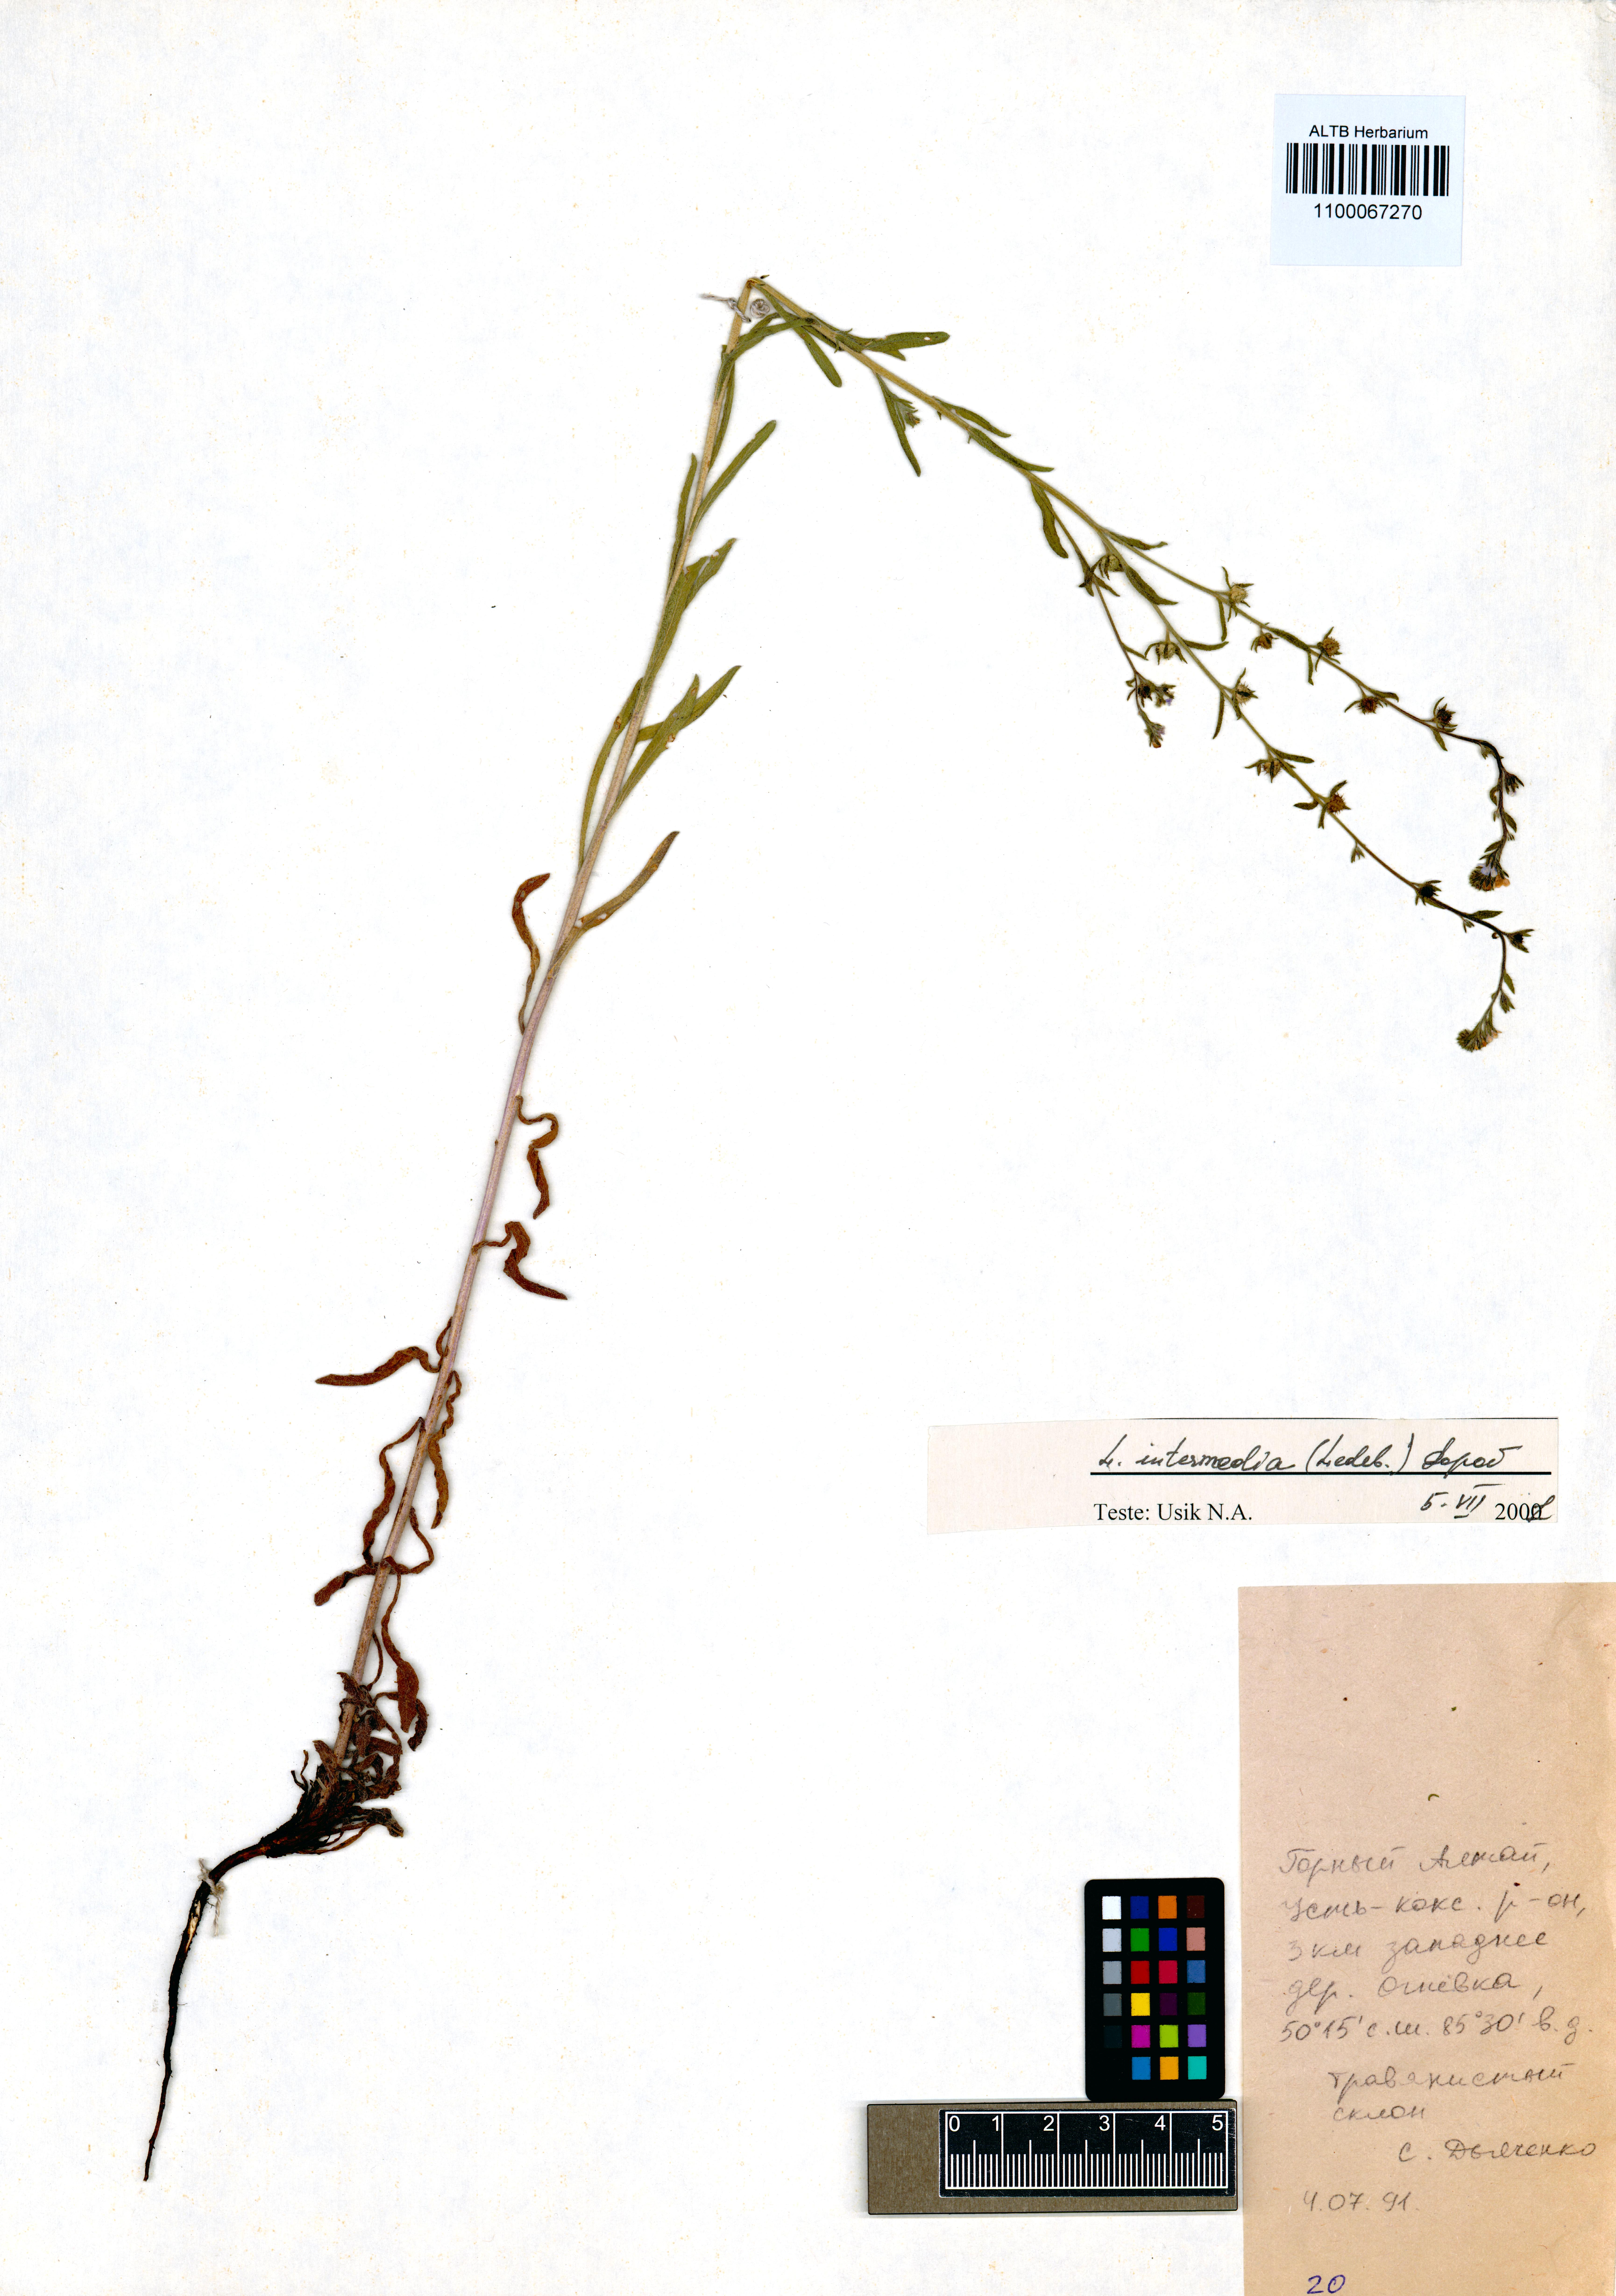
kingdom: Plantae
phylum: Tracheophyta
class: Magnoliopsida
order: Boraginales
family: Boraginaceae
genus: Lappula
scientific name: Lappula intermedia
